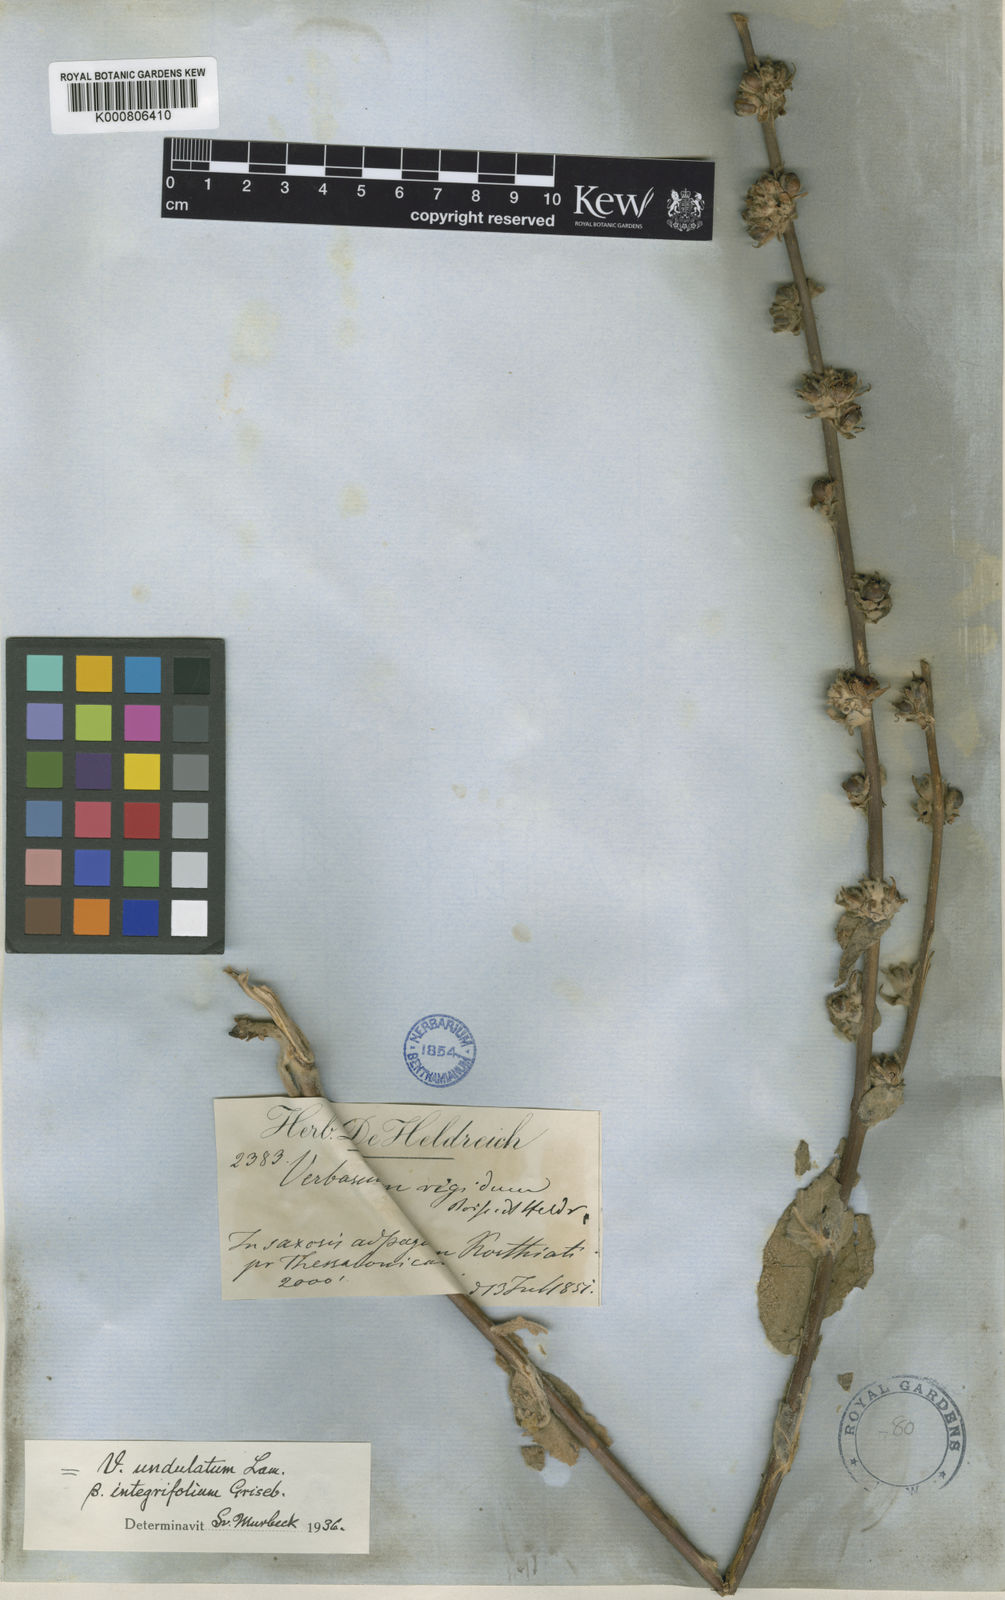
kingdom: Plantae
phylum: Tracheophyta
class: Magnoliopsida
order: Lamiales
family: Scrophulariaceae
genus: Verbascum
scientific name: Verbascum undulatum
